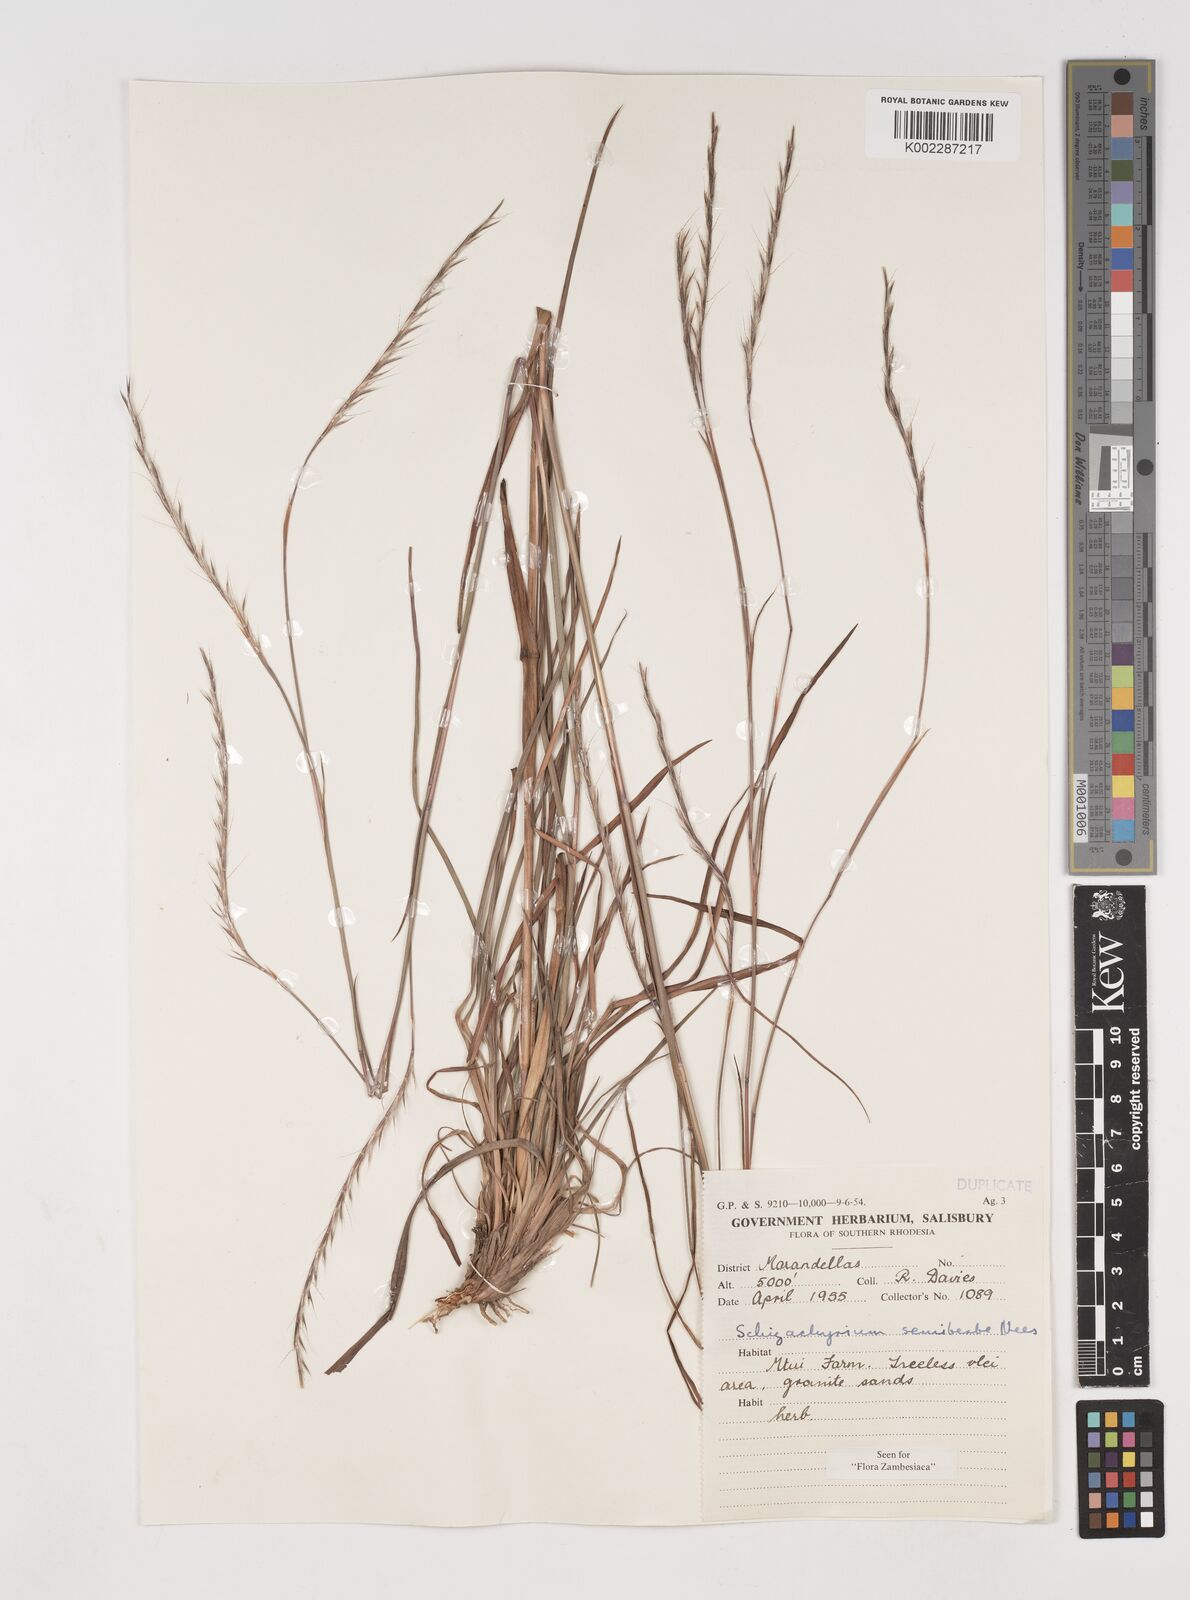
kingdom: Plantae
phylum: Tracheophyta
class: Liliopsida
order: Poales
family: Poaceae
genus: Schizachyrium
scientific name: Schizachyrium sanguineum
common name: Crimson bluestem
